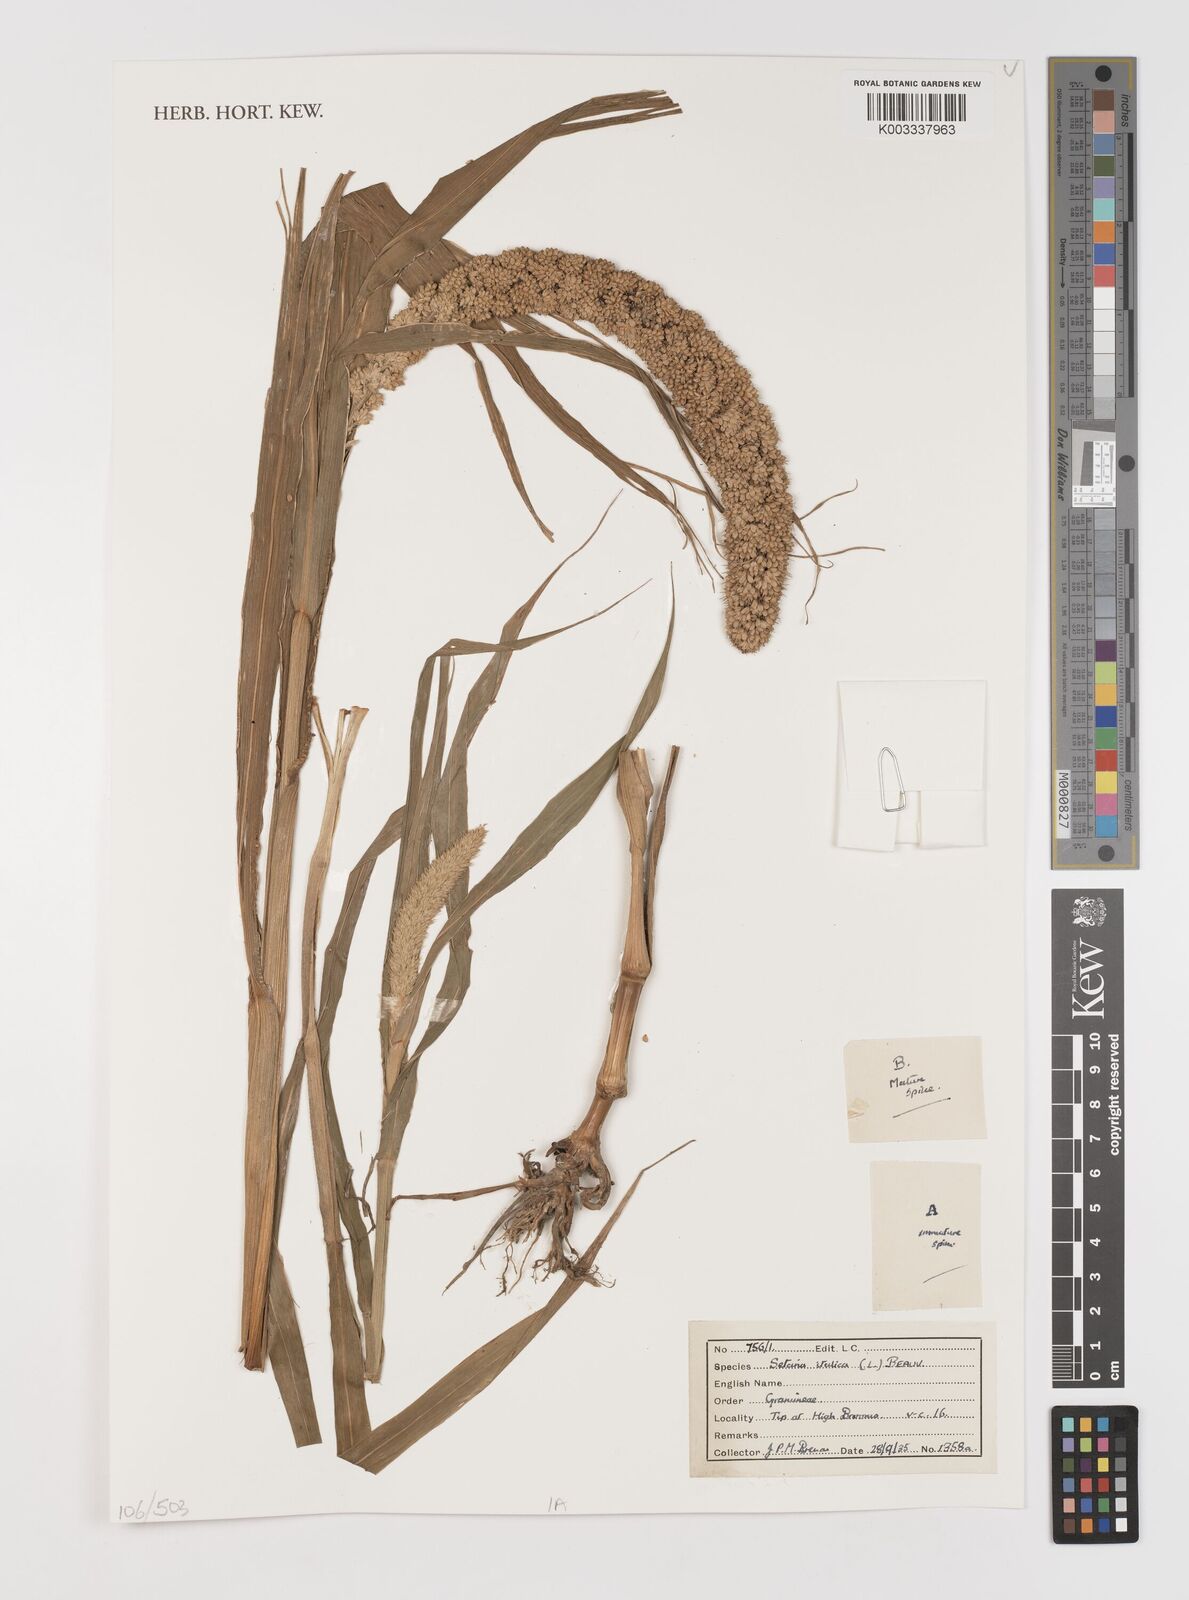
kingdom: Plantae
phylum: Tracheophyta
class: Liliopsida
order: Poales
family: Poaceae
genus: Setaria
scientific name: Setaria italica
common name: Foxtail bristle-grass
